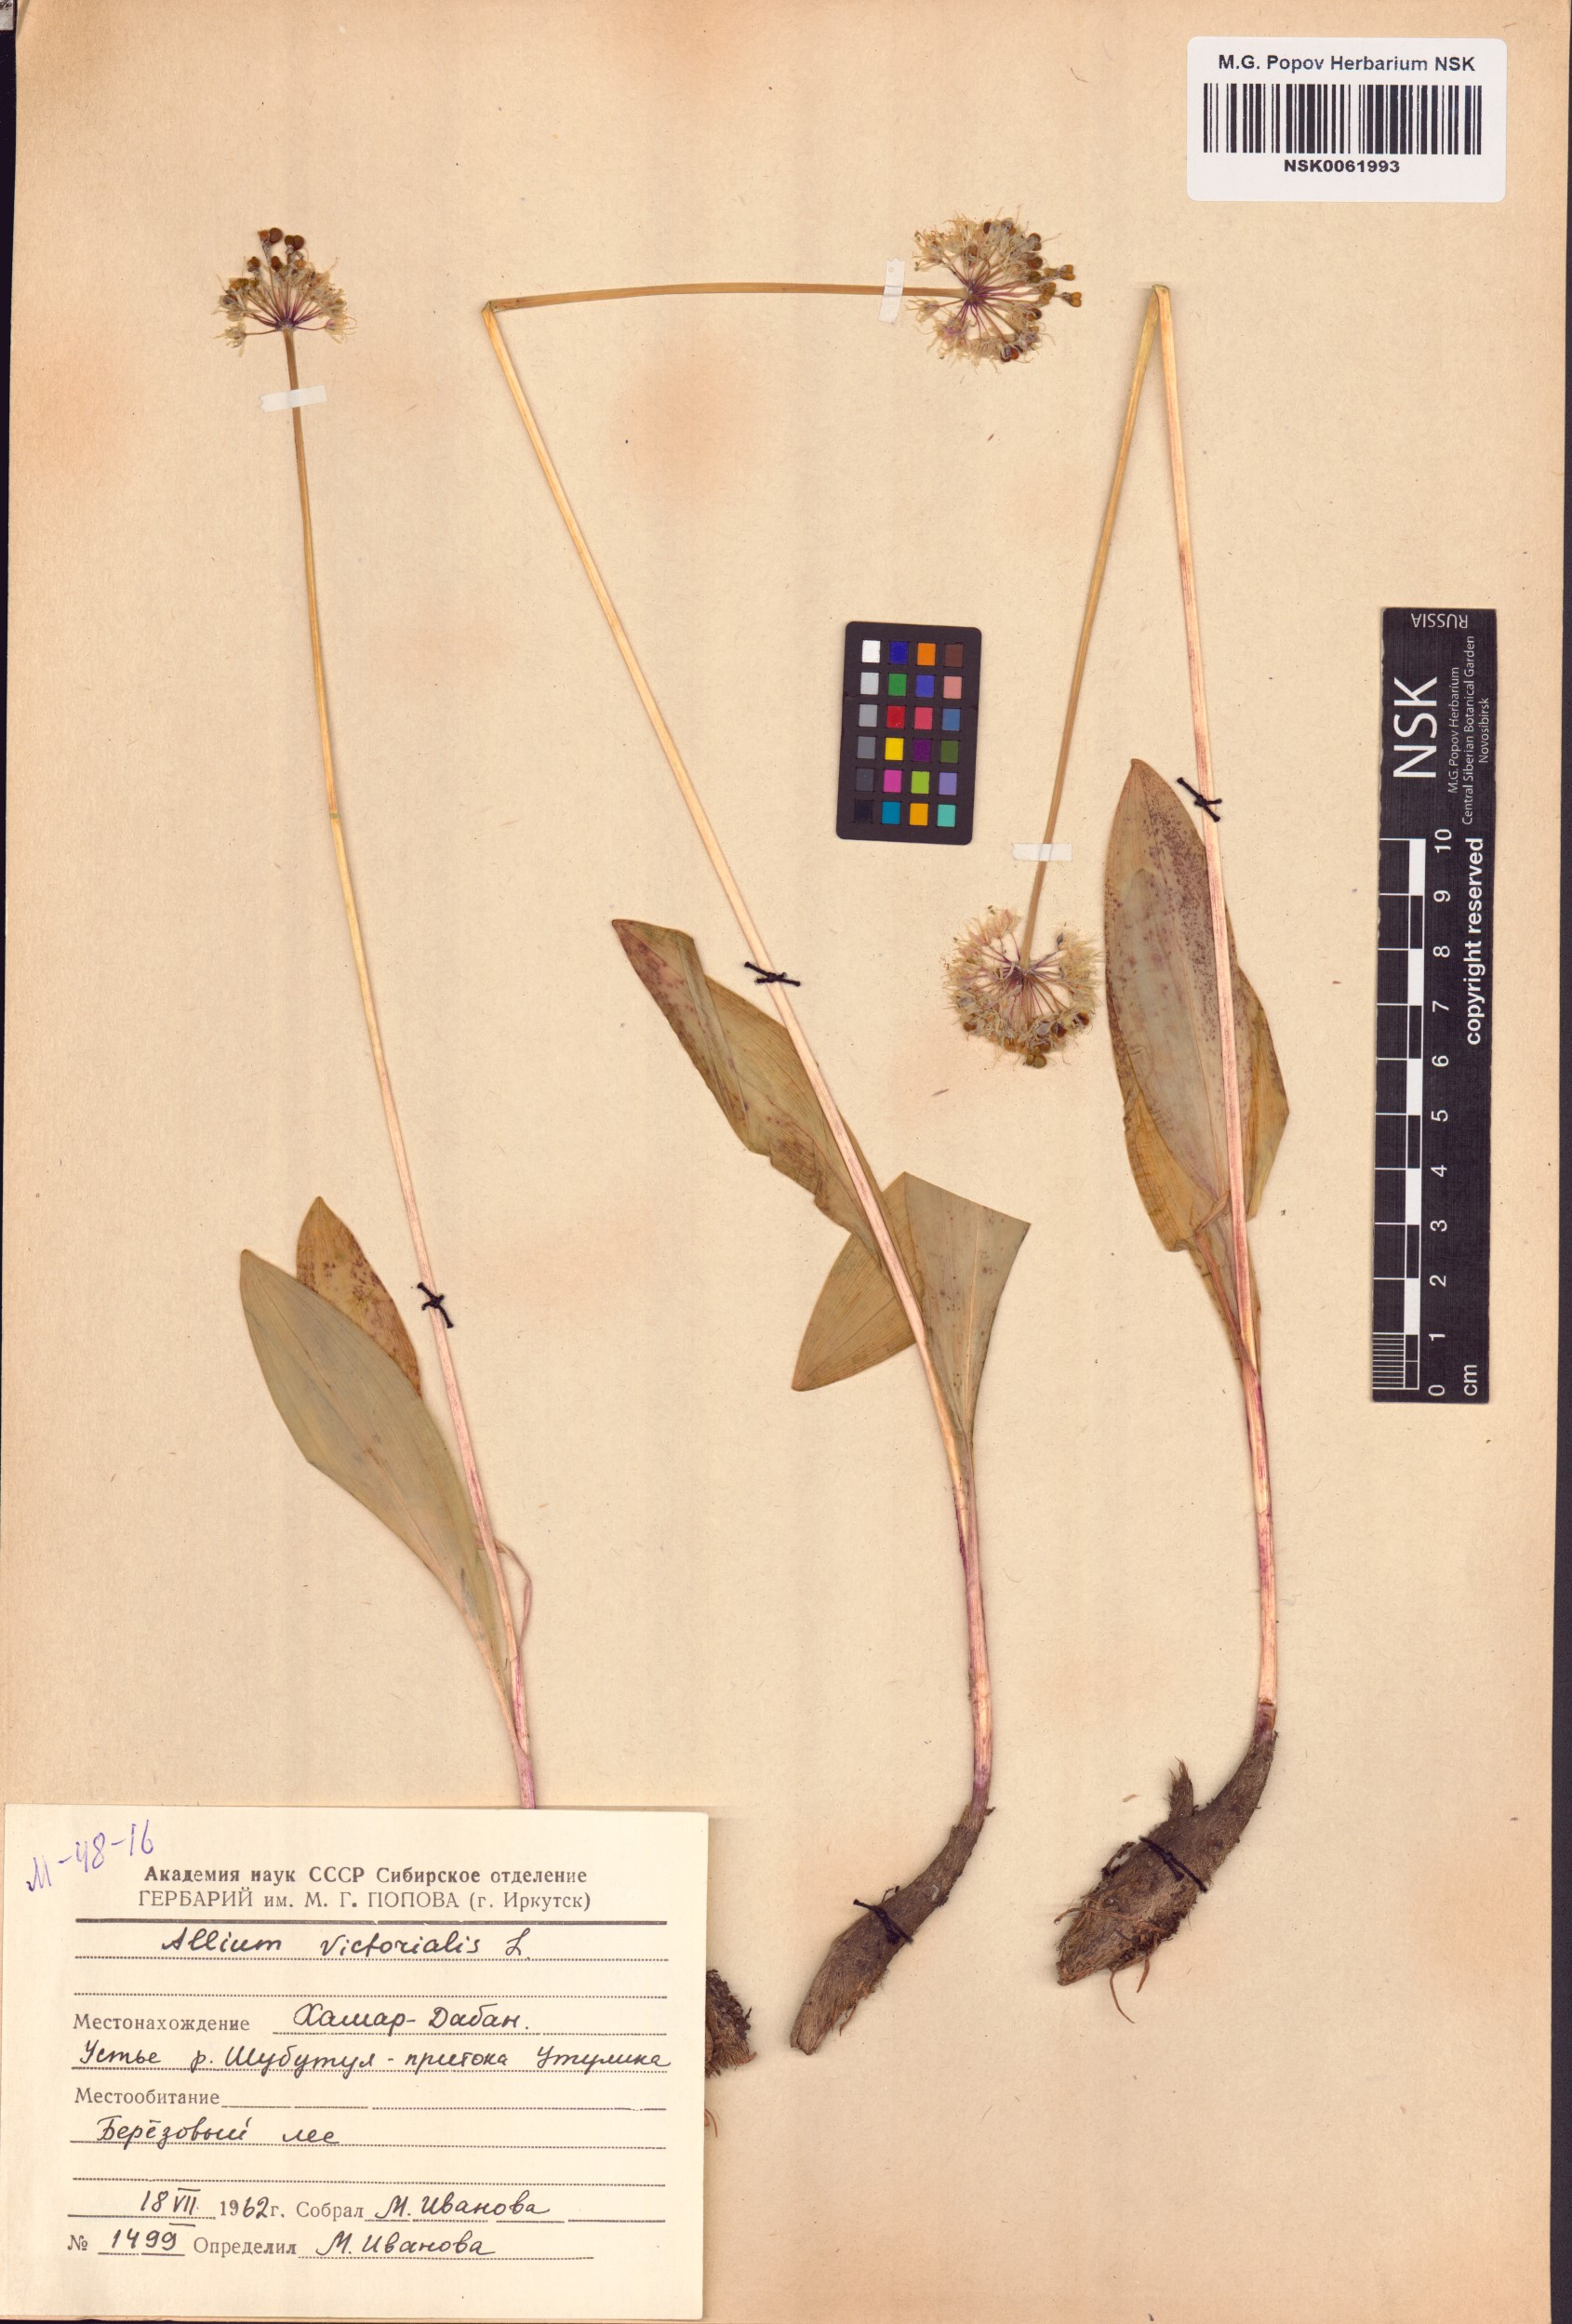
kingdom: Plantae
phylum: Tracheophyta
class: Liliopsida
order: Asparagales
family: Amaryllidaceae
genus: Allium
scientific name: Allium victorialis
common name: Alpine leek
